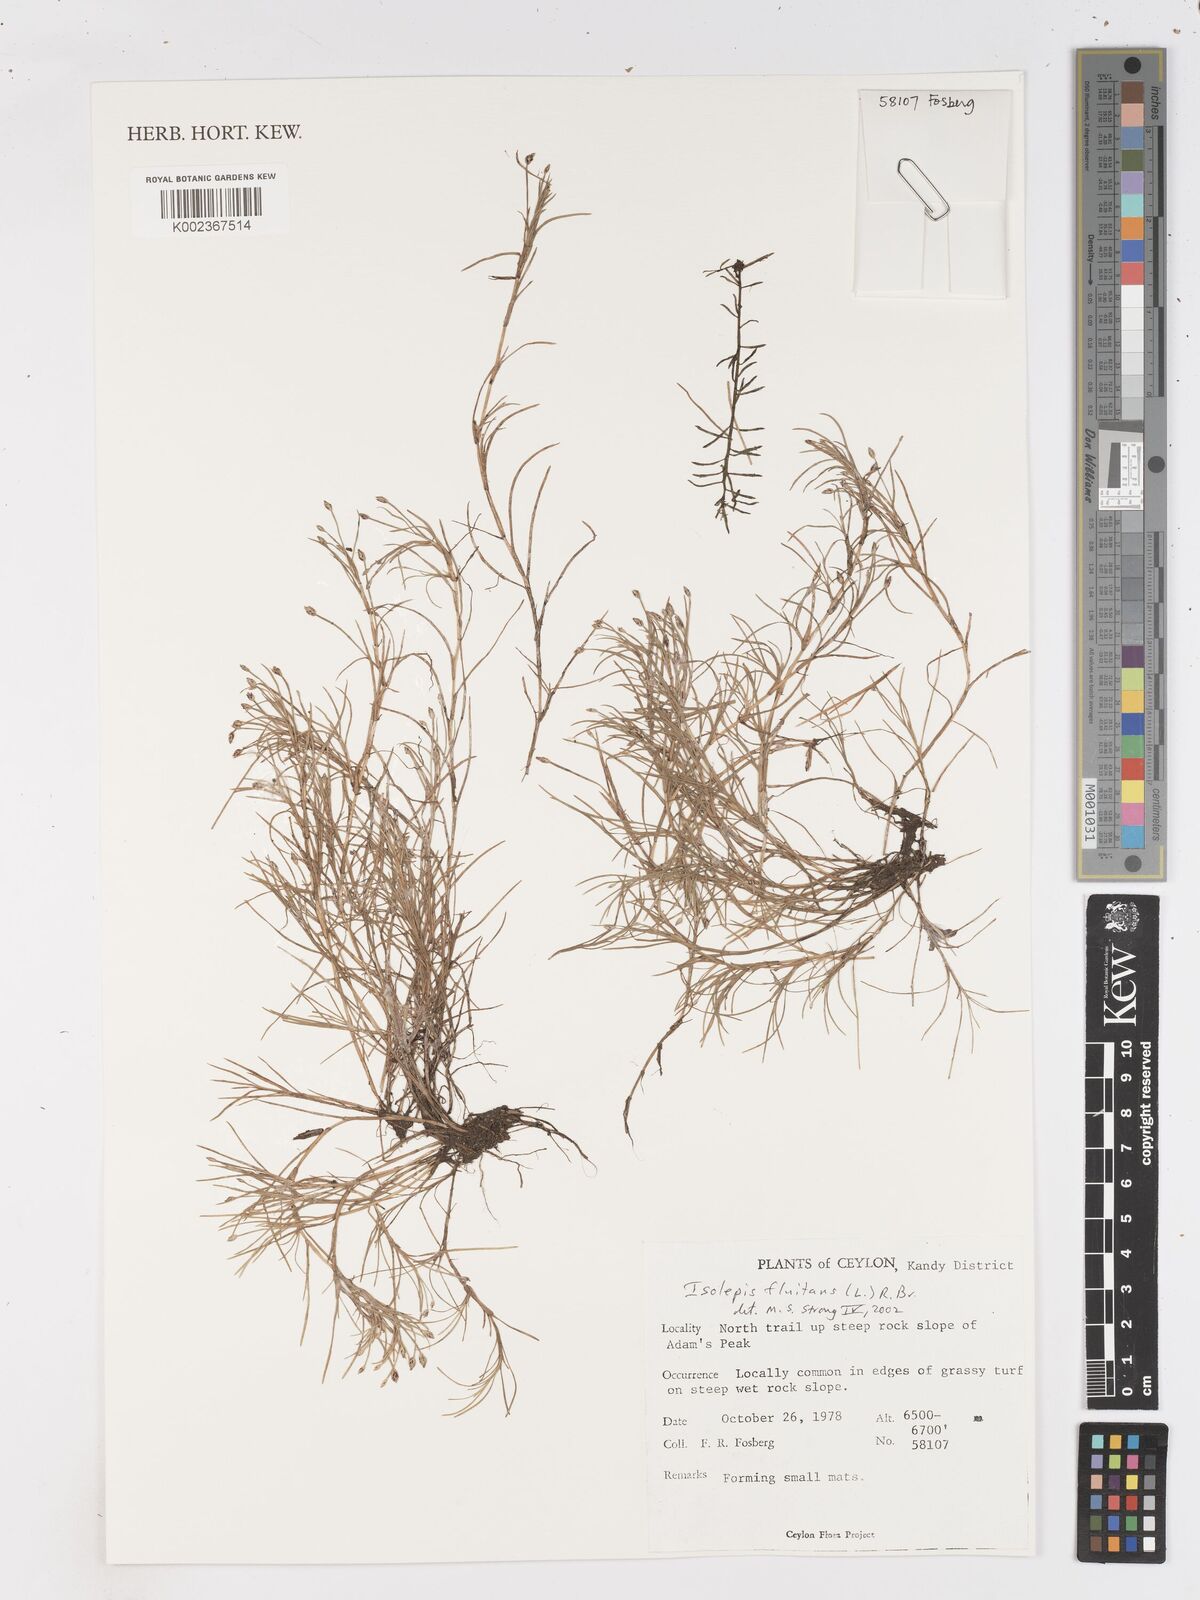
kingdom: Plantae
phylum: Tracheophyta
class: Liliopsida
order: Poales
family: Cyperaceae
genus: Isolepis
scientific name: Isolepis fluitans
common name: Floating club-rush
